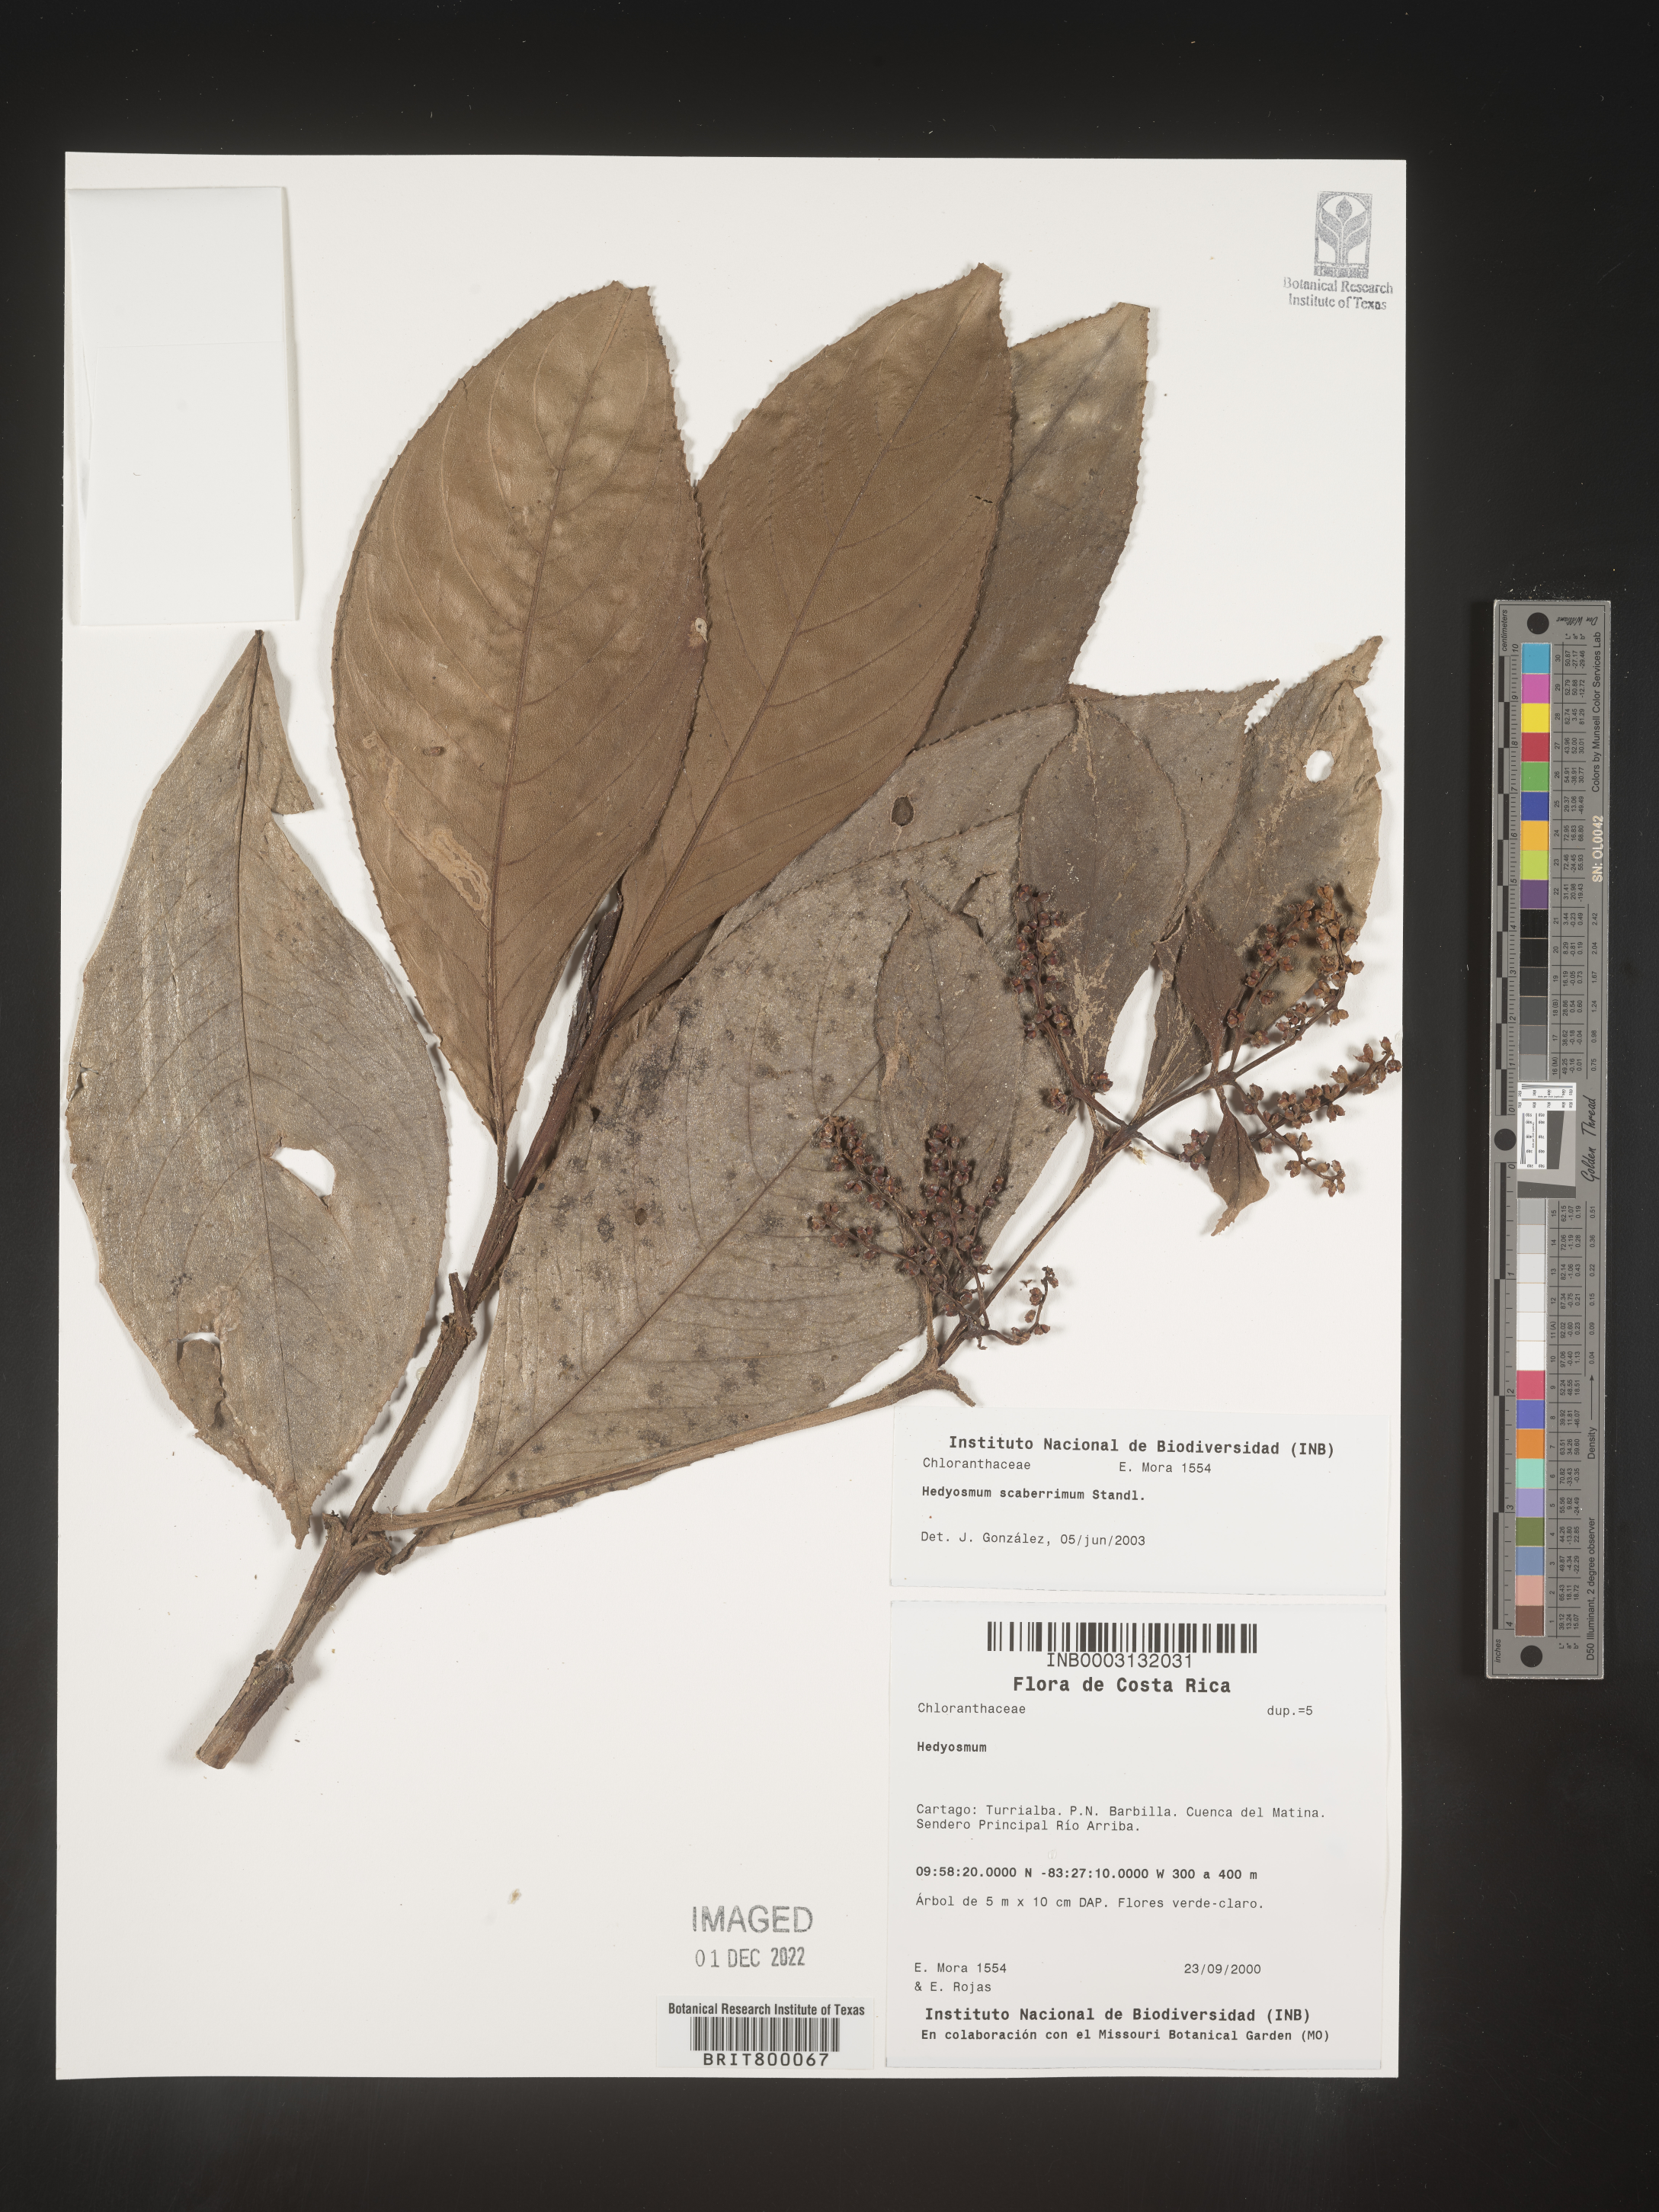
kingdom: Plantae
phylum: Tracheophyta
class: Magnoliopsida
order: Chloranthales
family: Chloranthaceae
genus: Hedyosmum
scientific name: Hedyosmum
